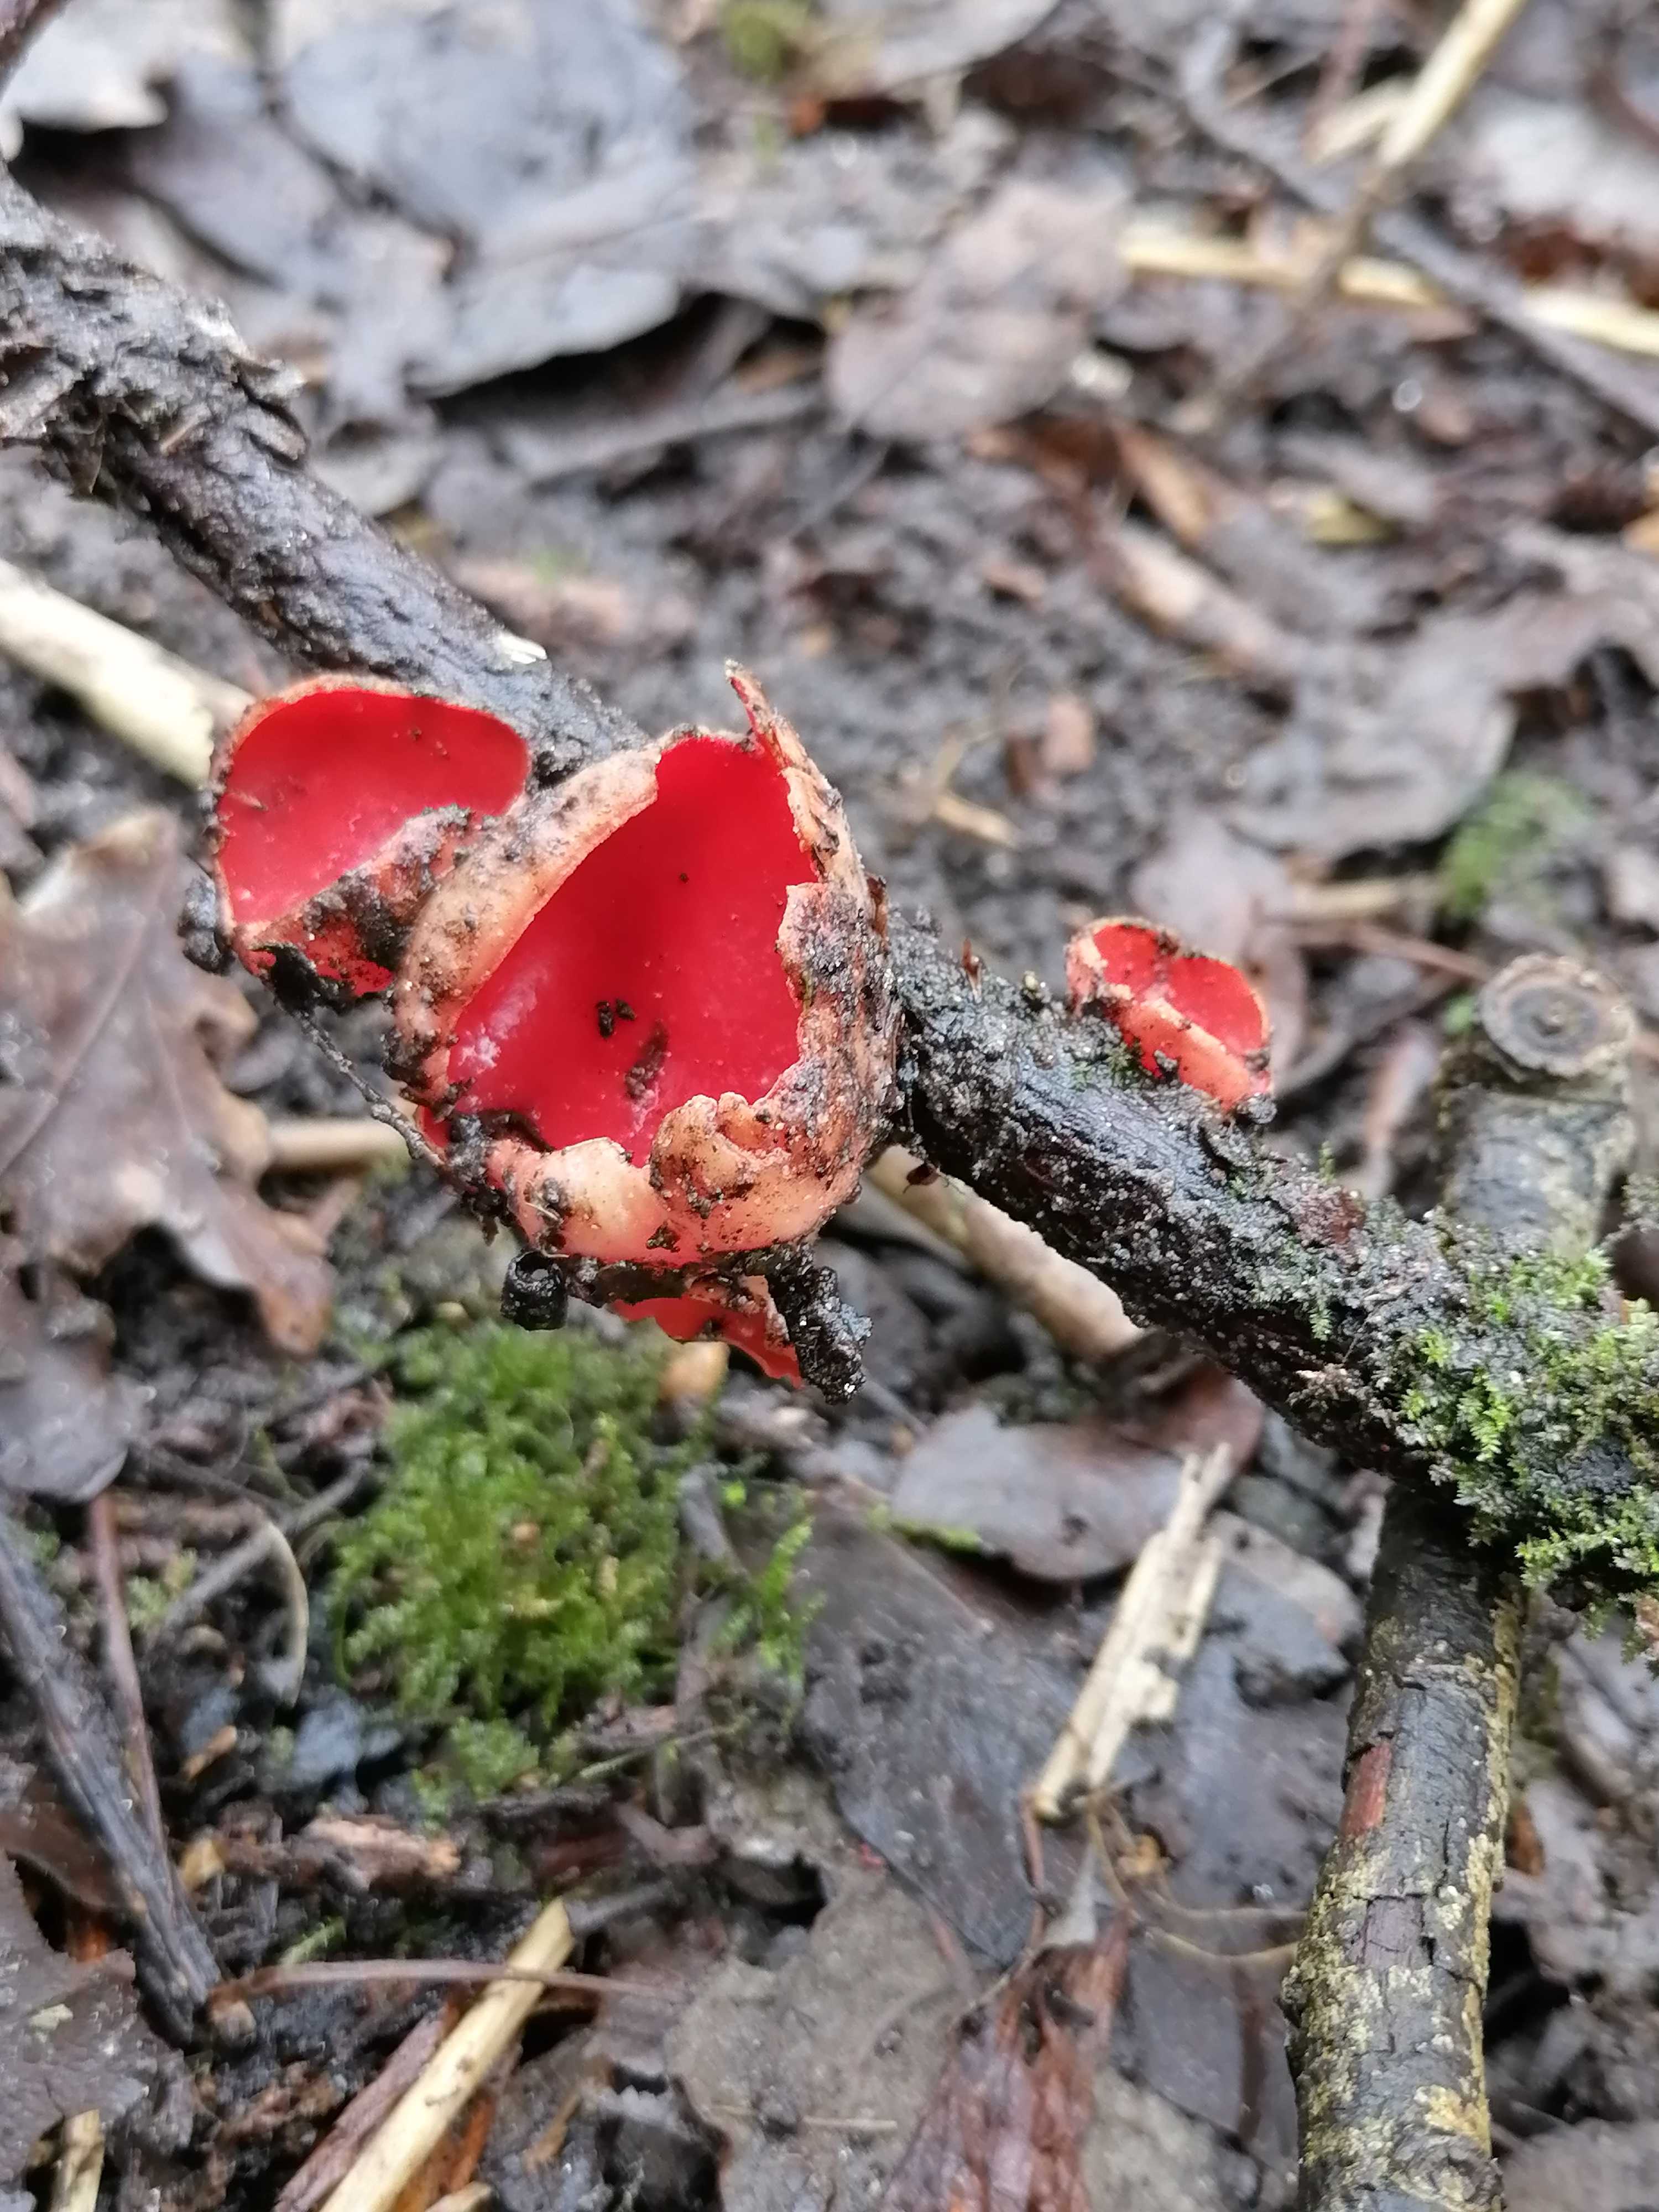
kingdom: Fungi
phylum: Ascomycota
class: Pezizomycetes
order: Pezizales
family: Sarcoscyphaceae
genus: Sarcoscypha
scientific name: Sarcoscypha austriaca
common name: krølhåret pragtbæger
